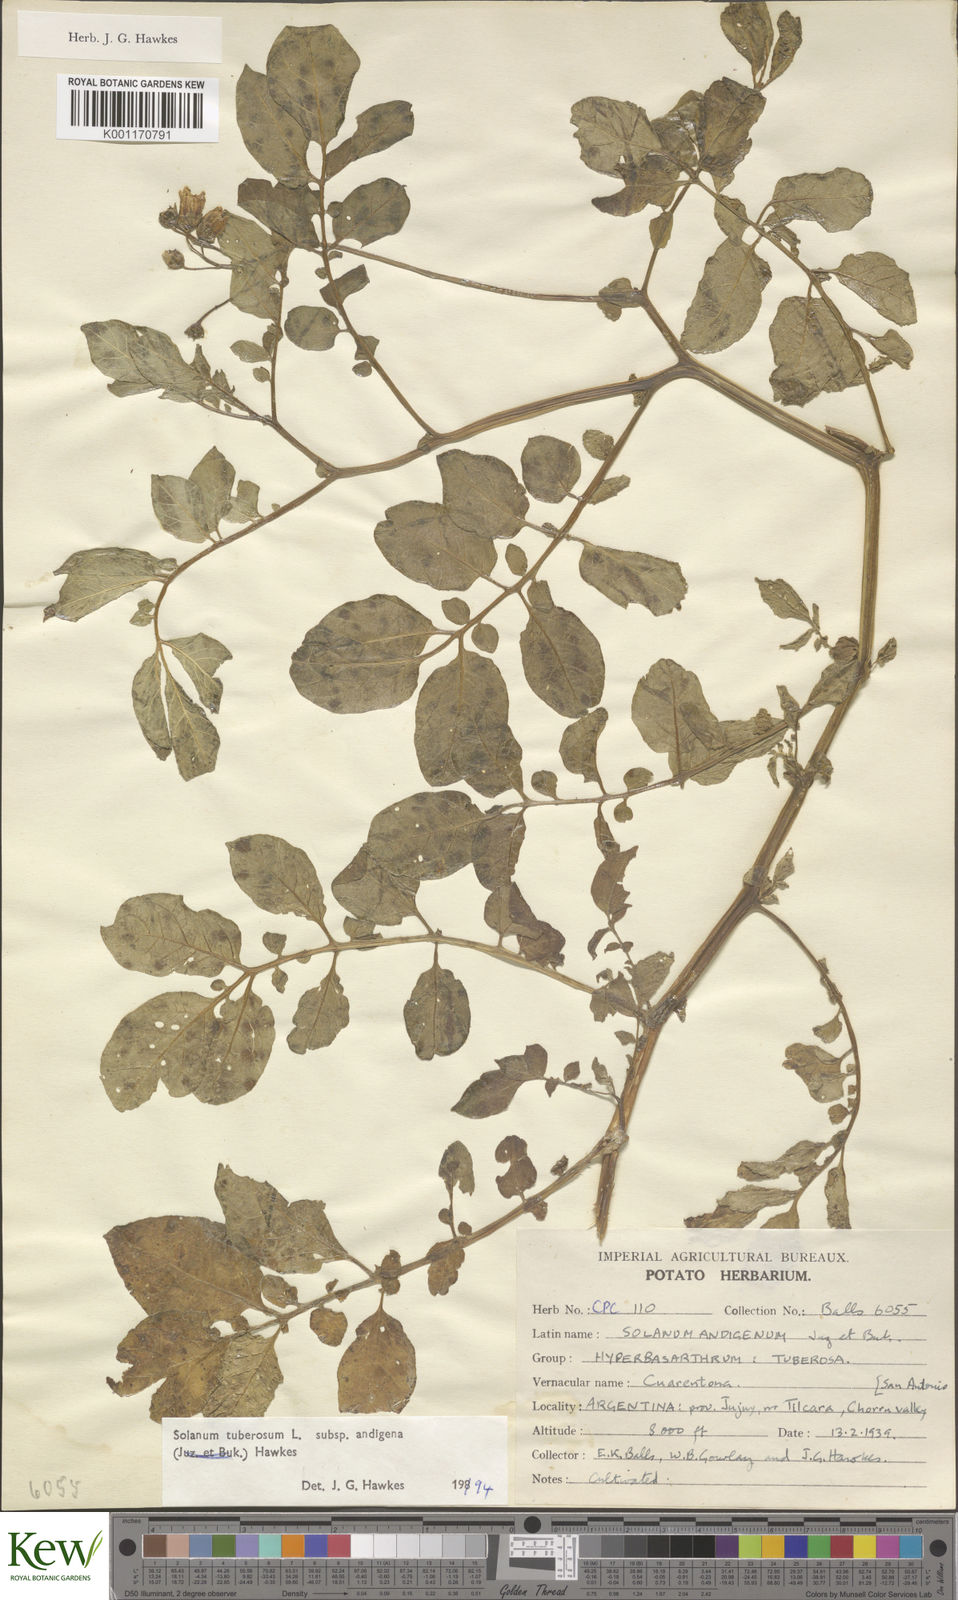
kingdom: Plantae
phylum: Tracheophyta
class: Magnoliopsida
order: Solanales
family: Solanaceae
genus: Solanum
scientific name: Solanum tuberosum
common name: Potato
